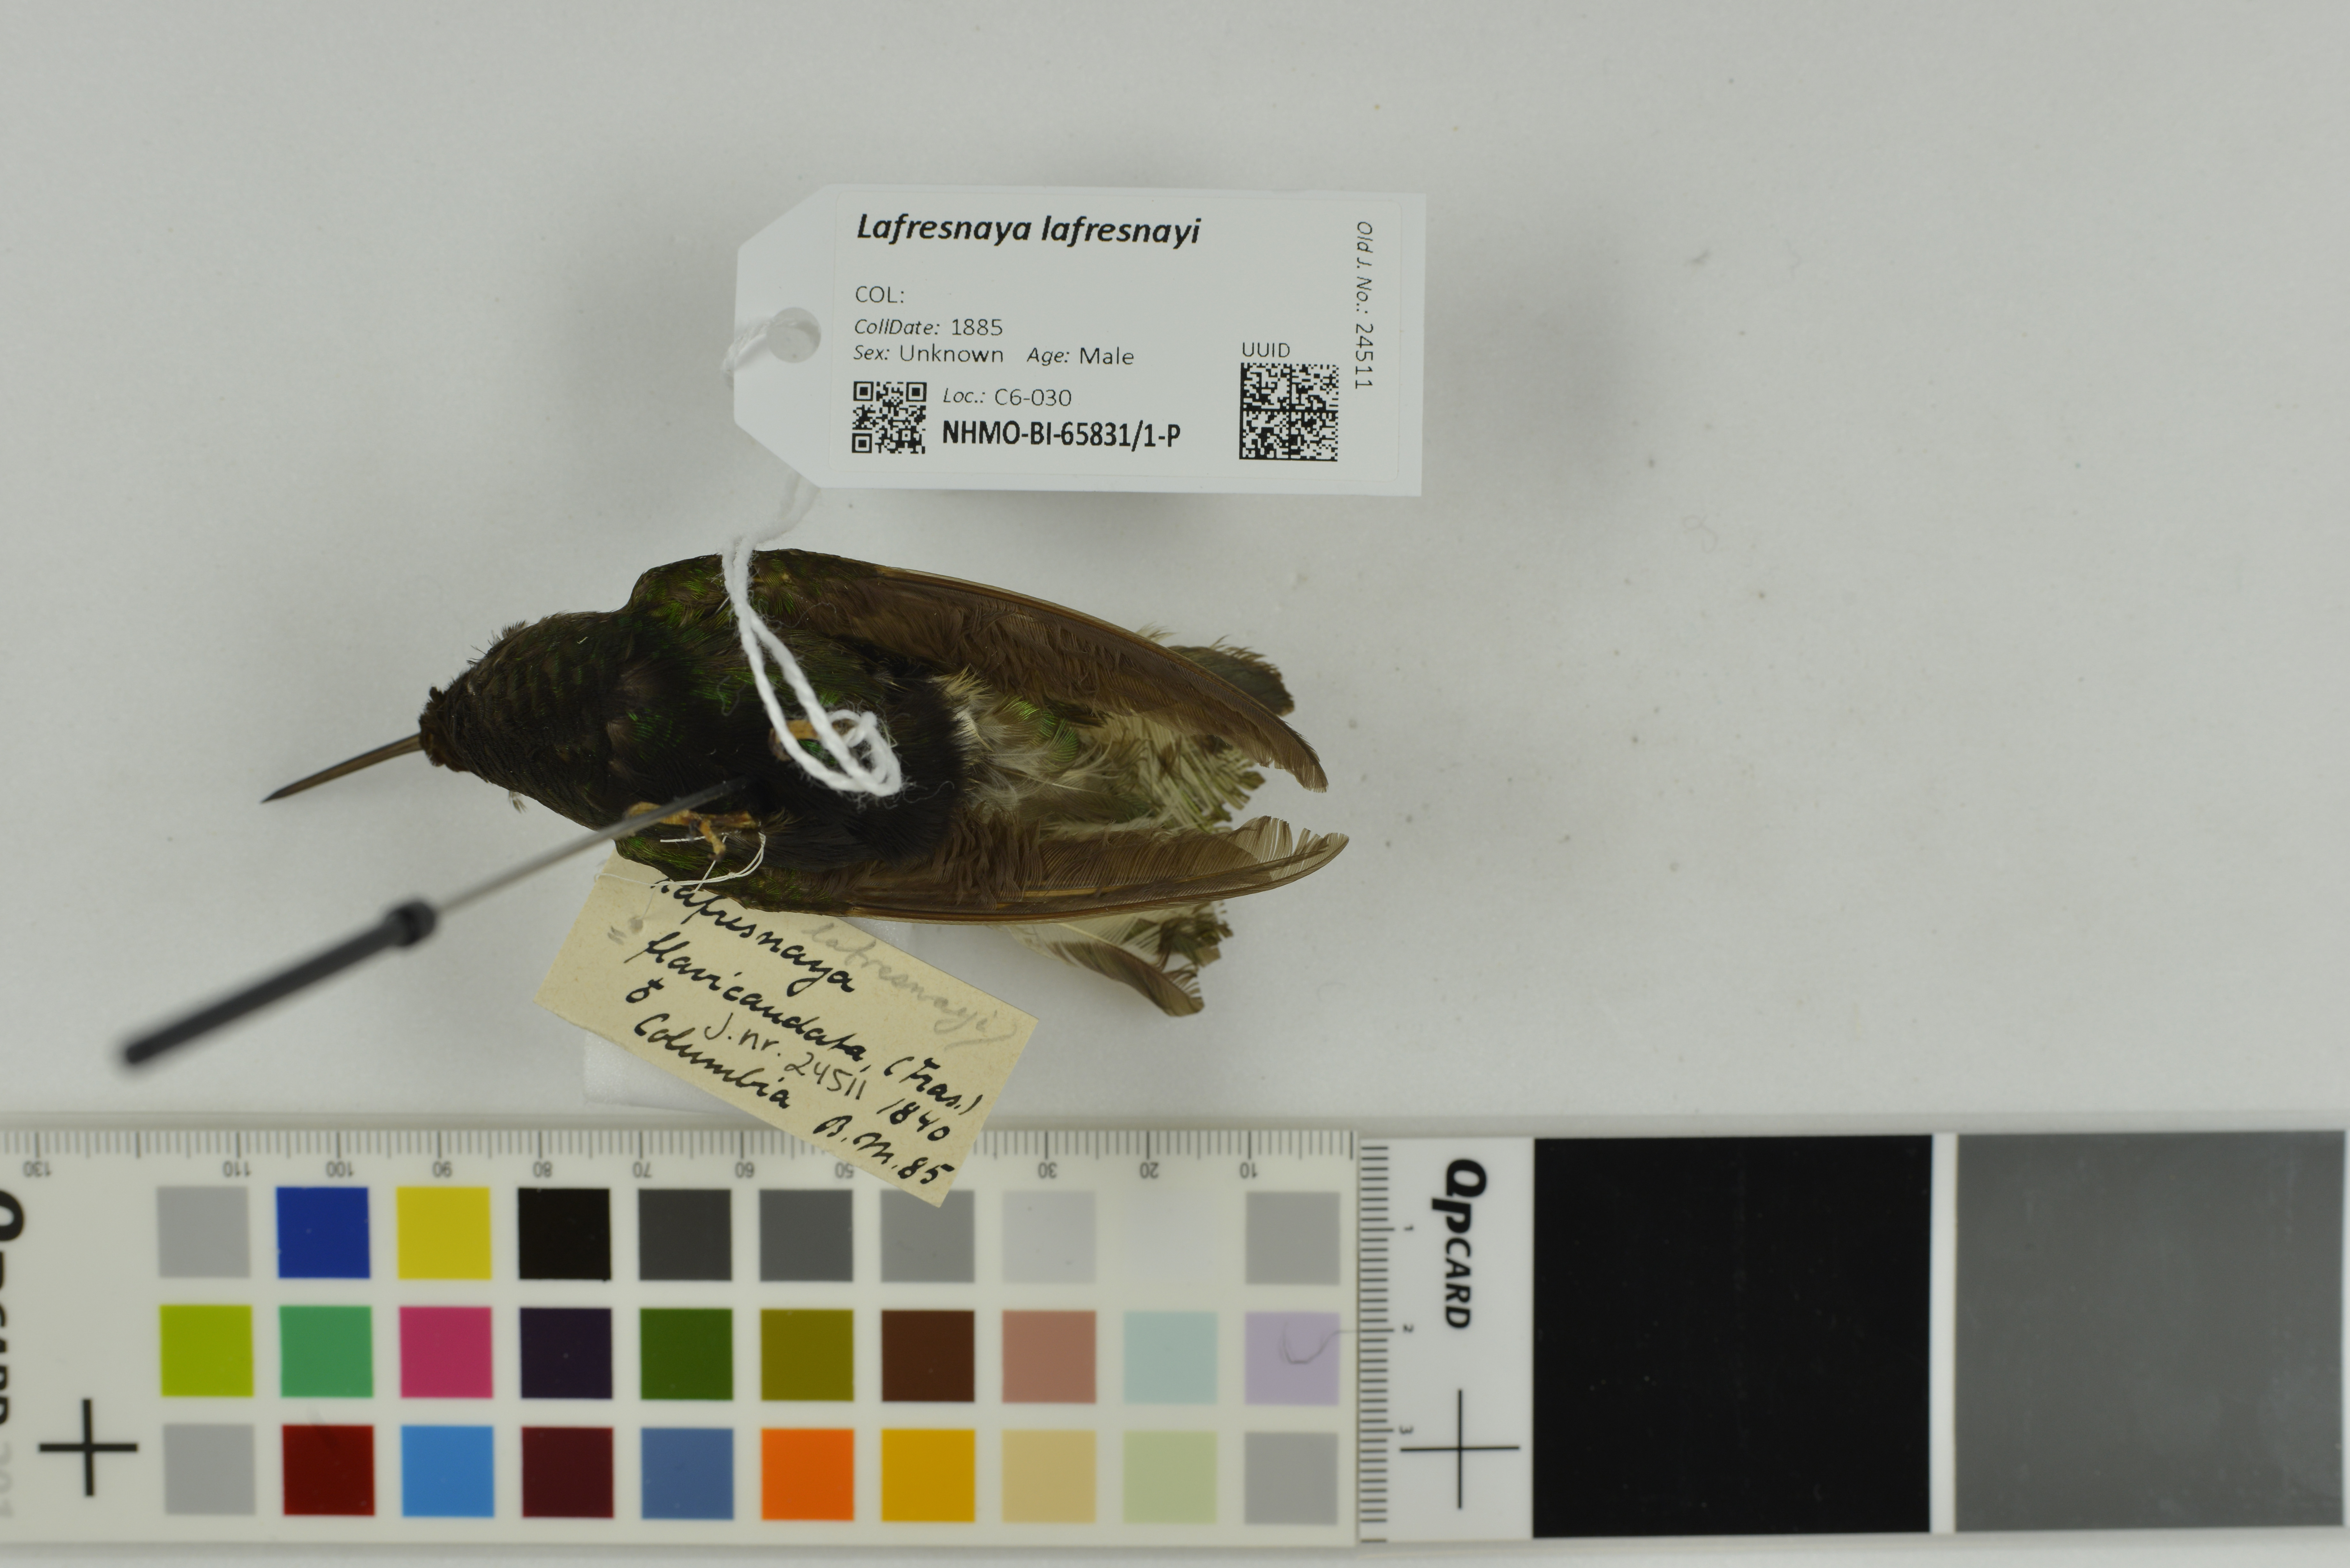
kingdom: Animalia
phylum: Chordata
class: Aves
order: Apodiformes
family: Trochilidae
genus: Lafresnaya
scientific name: Lafresnaya lafresnayi
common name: Mountain velvetbreast
